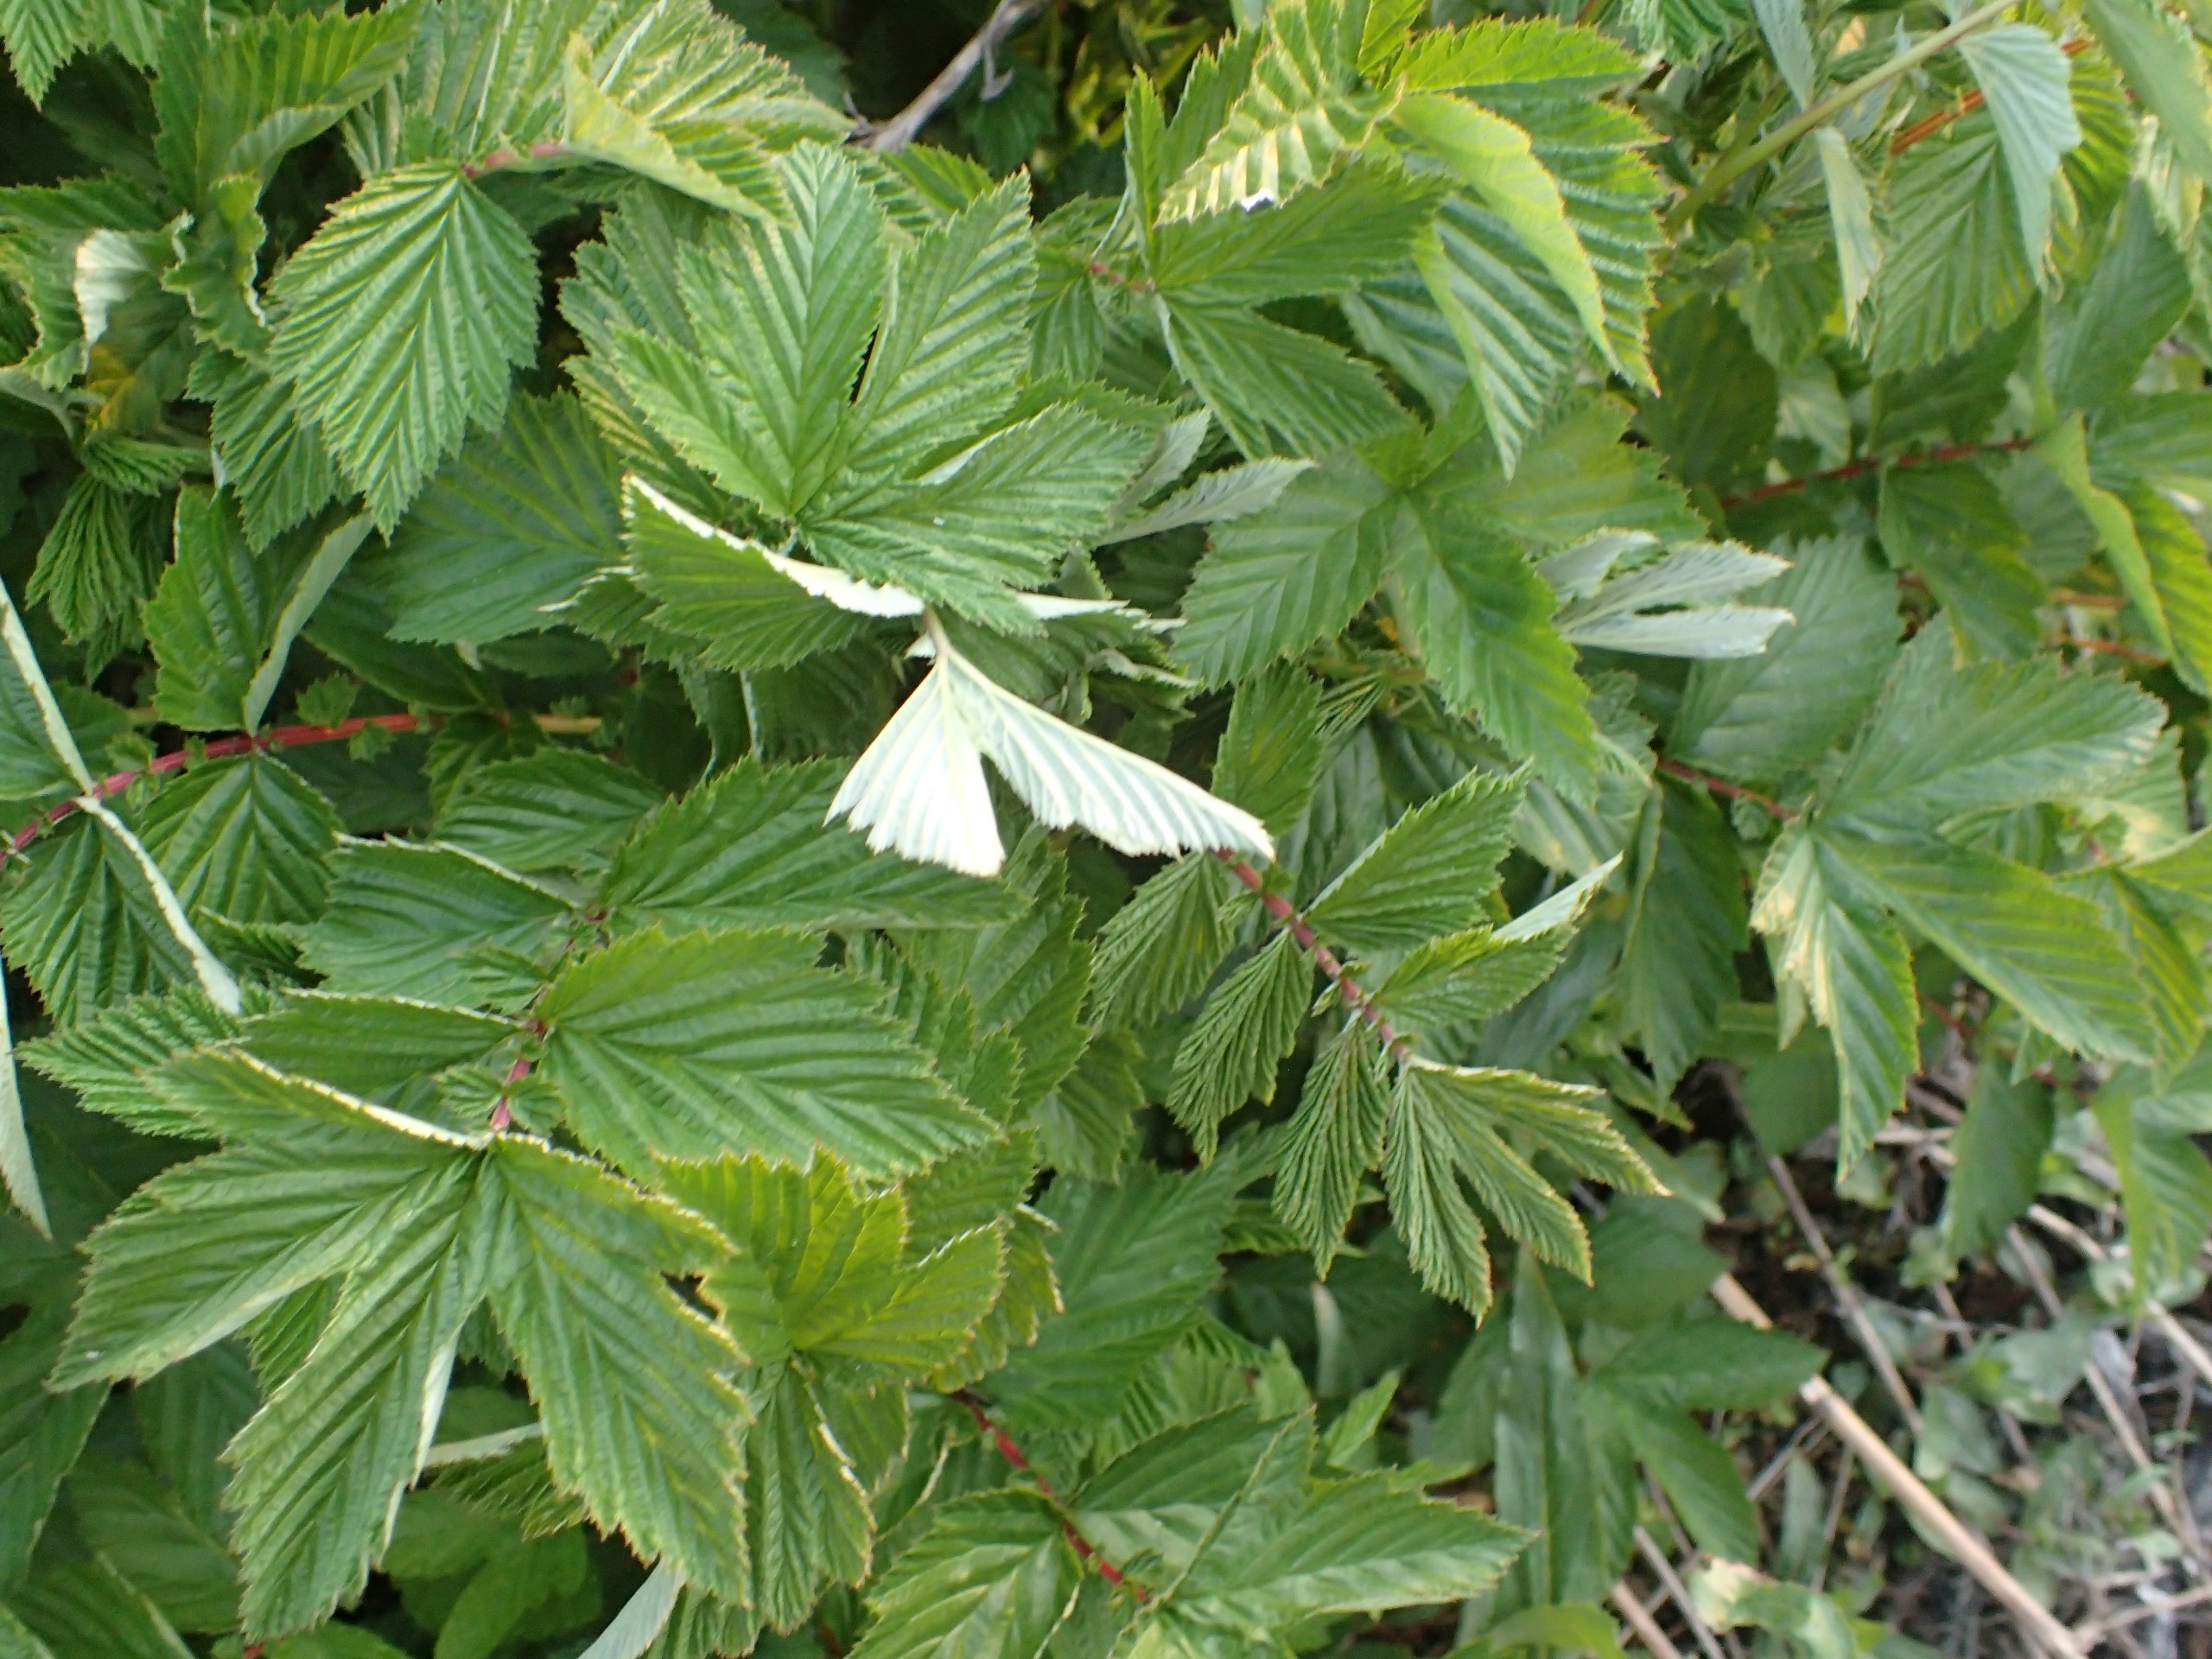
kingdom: Plantae
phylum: Tracheophyta
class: Magnoliopsida
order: Rosales
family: Rosaceae
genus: Filipendula
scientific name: Filipendula ulmaria
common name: Almindelig mjødurt
